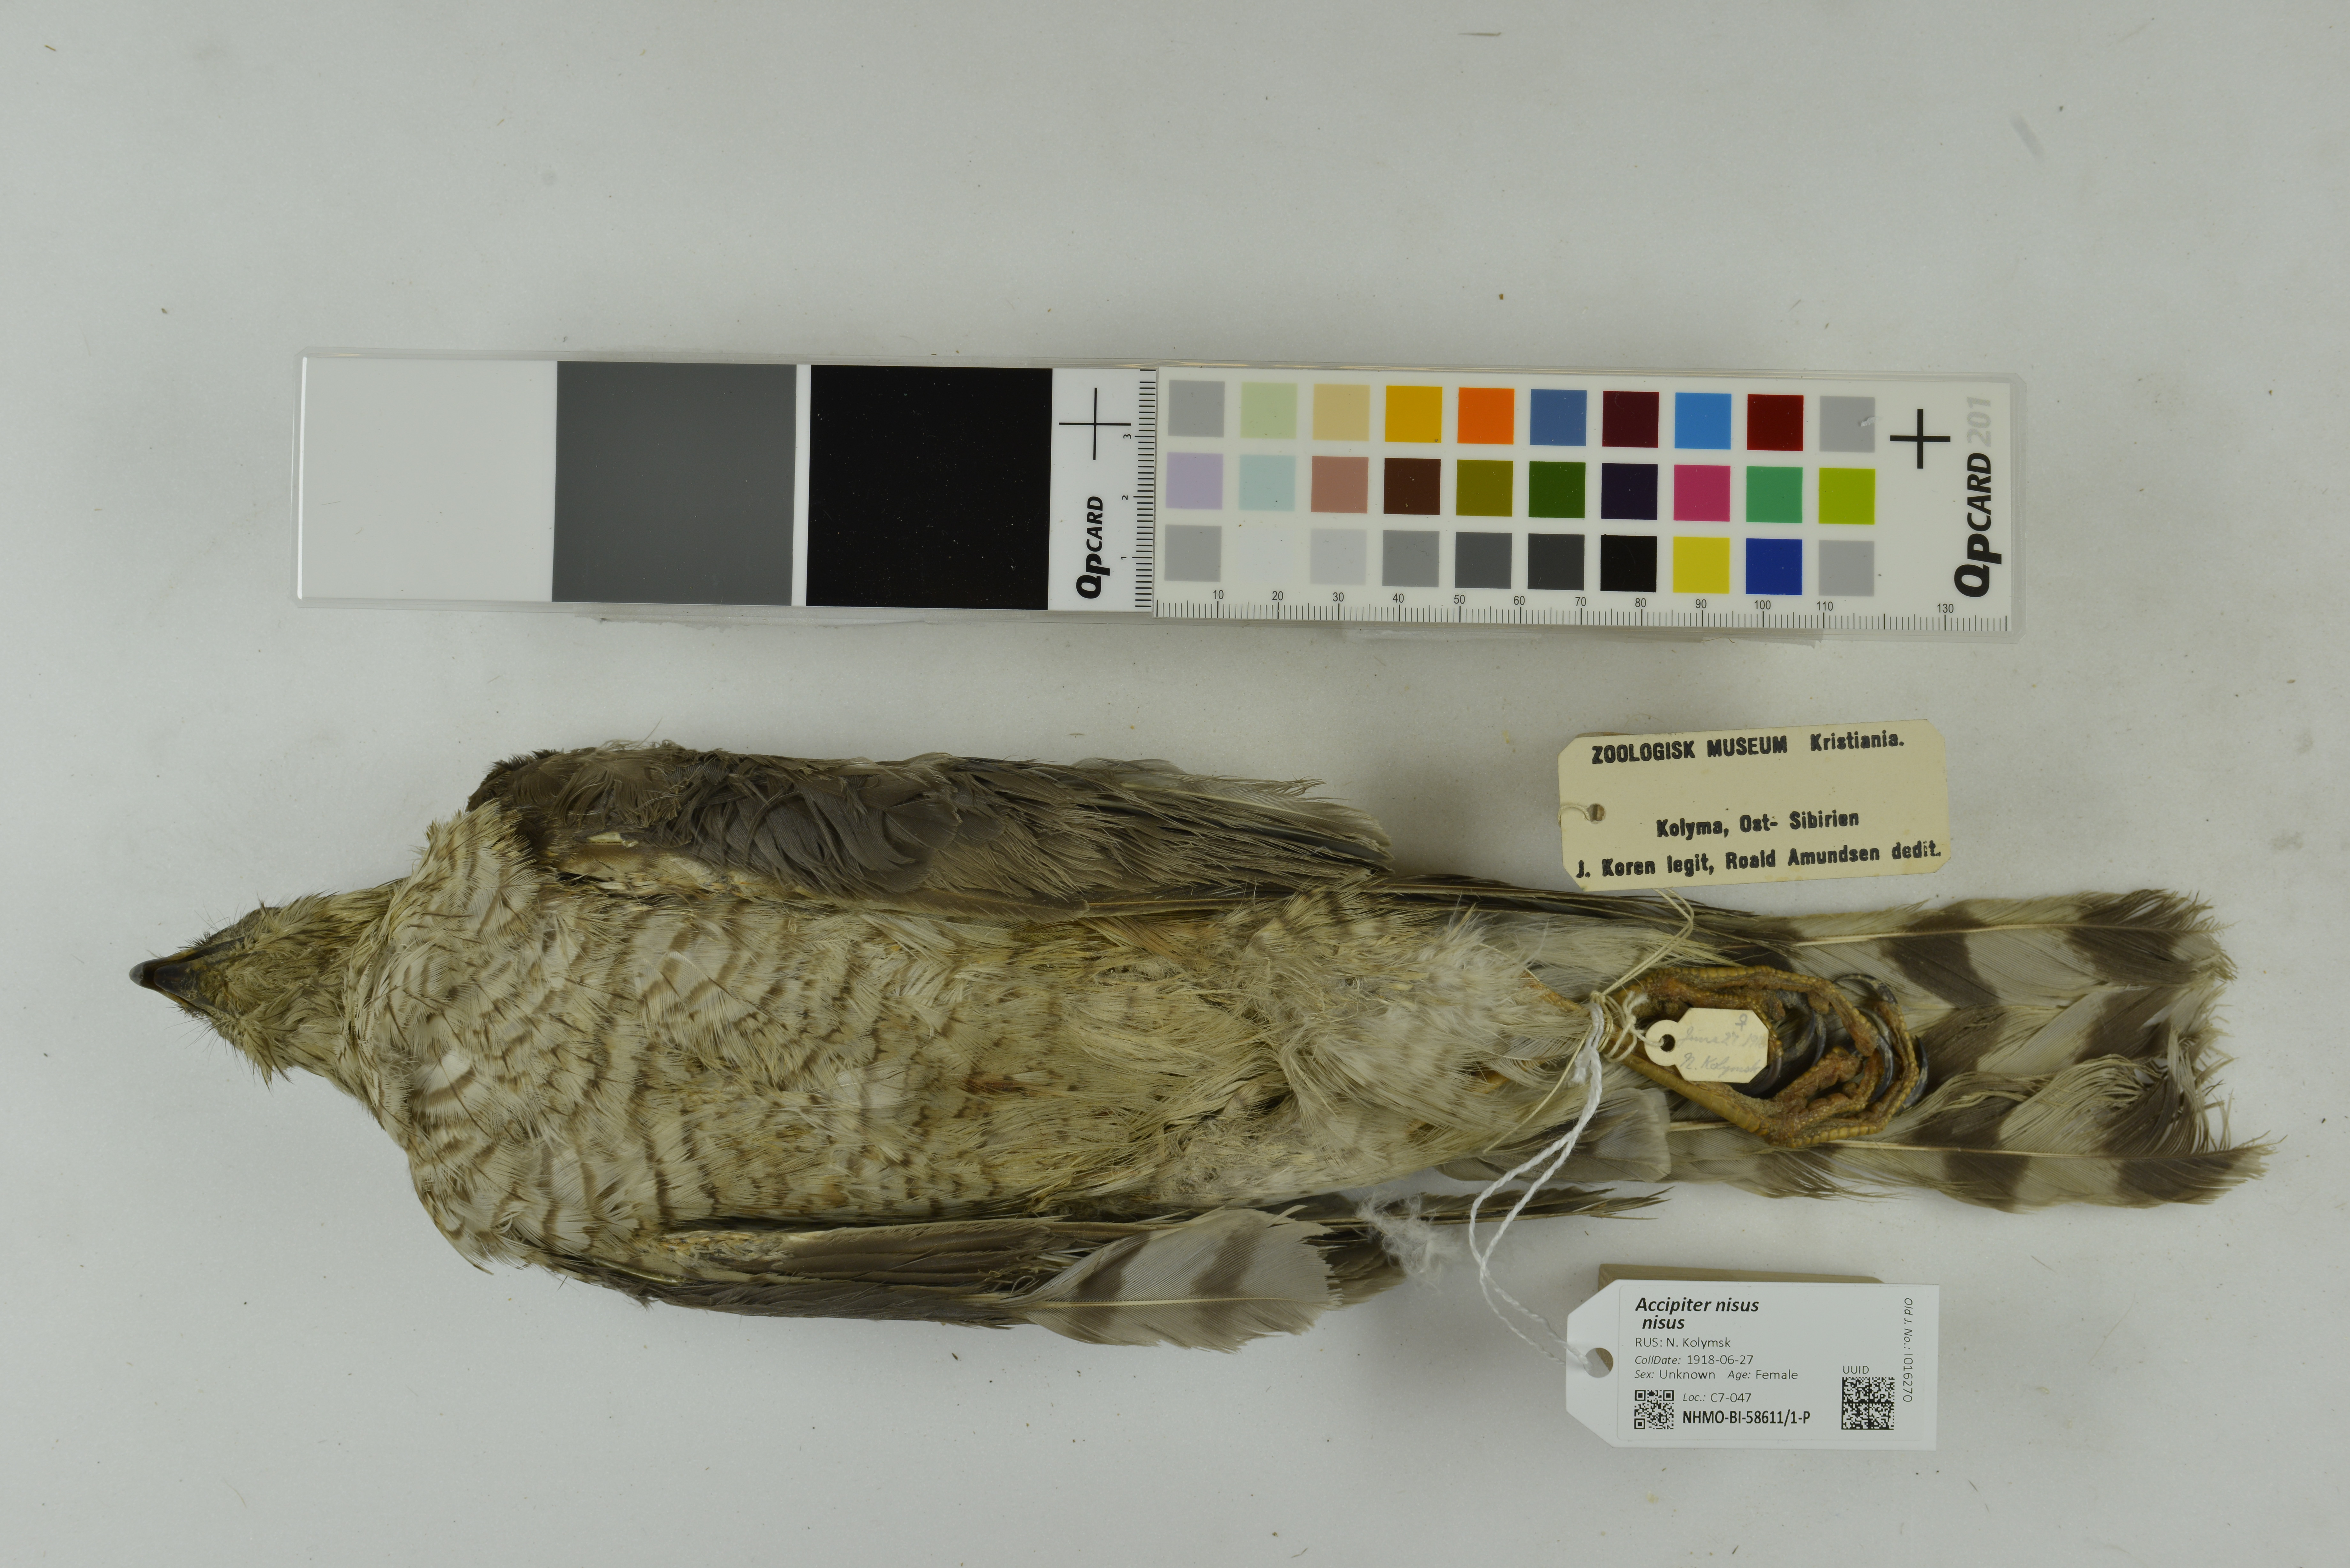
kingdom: Animalia
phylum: Chordata
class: Aves
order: Accipitriformes
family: Accipitridae
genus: Accipiter
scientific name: Accipiter nisus
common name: Eurasian sparrowhawk
